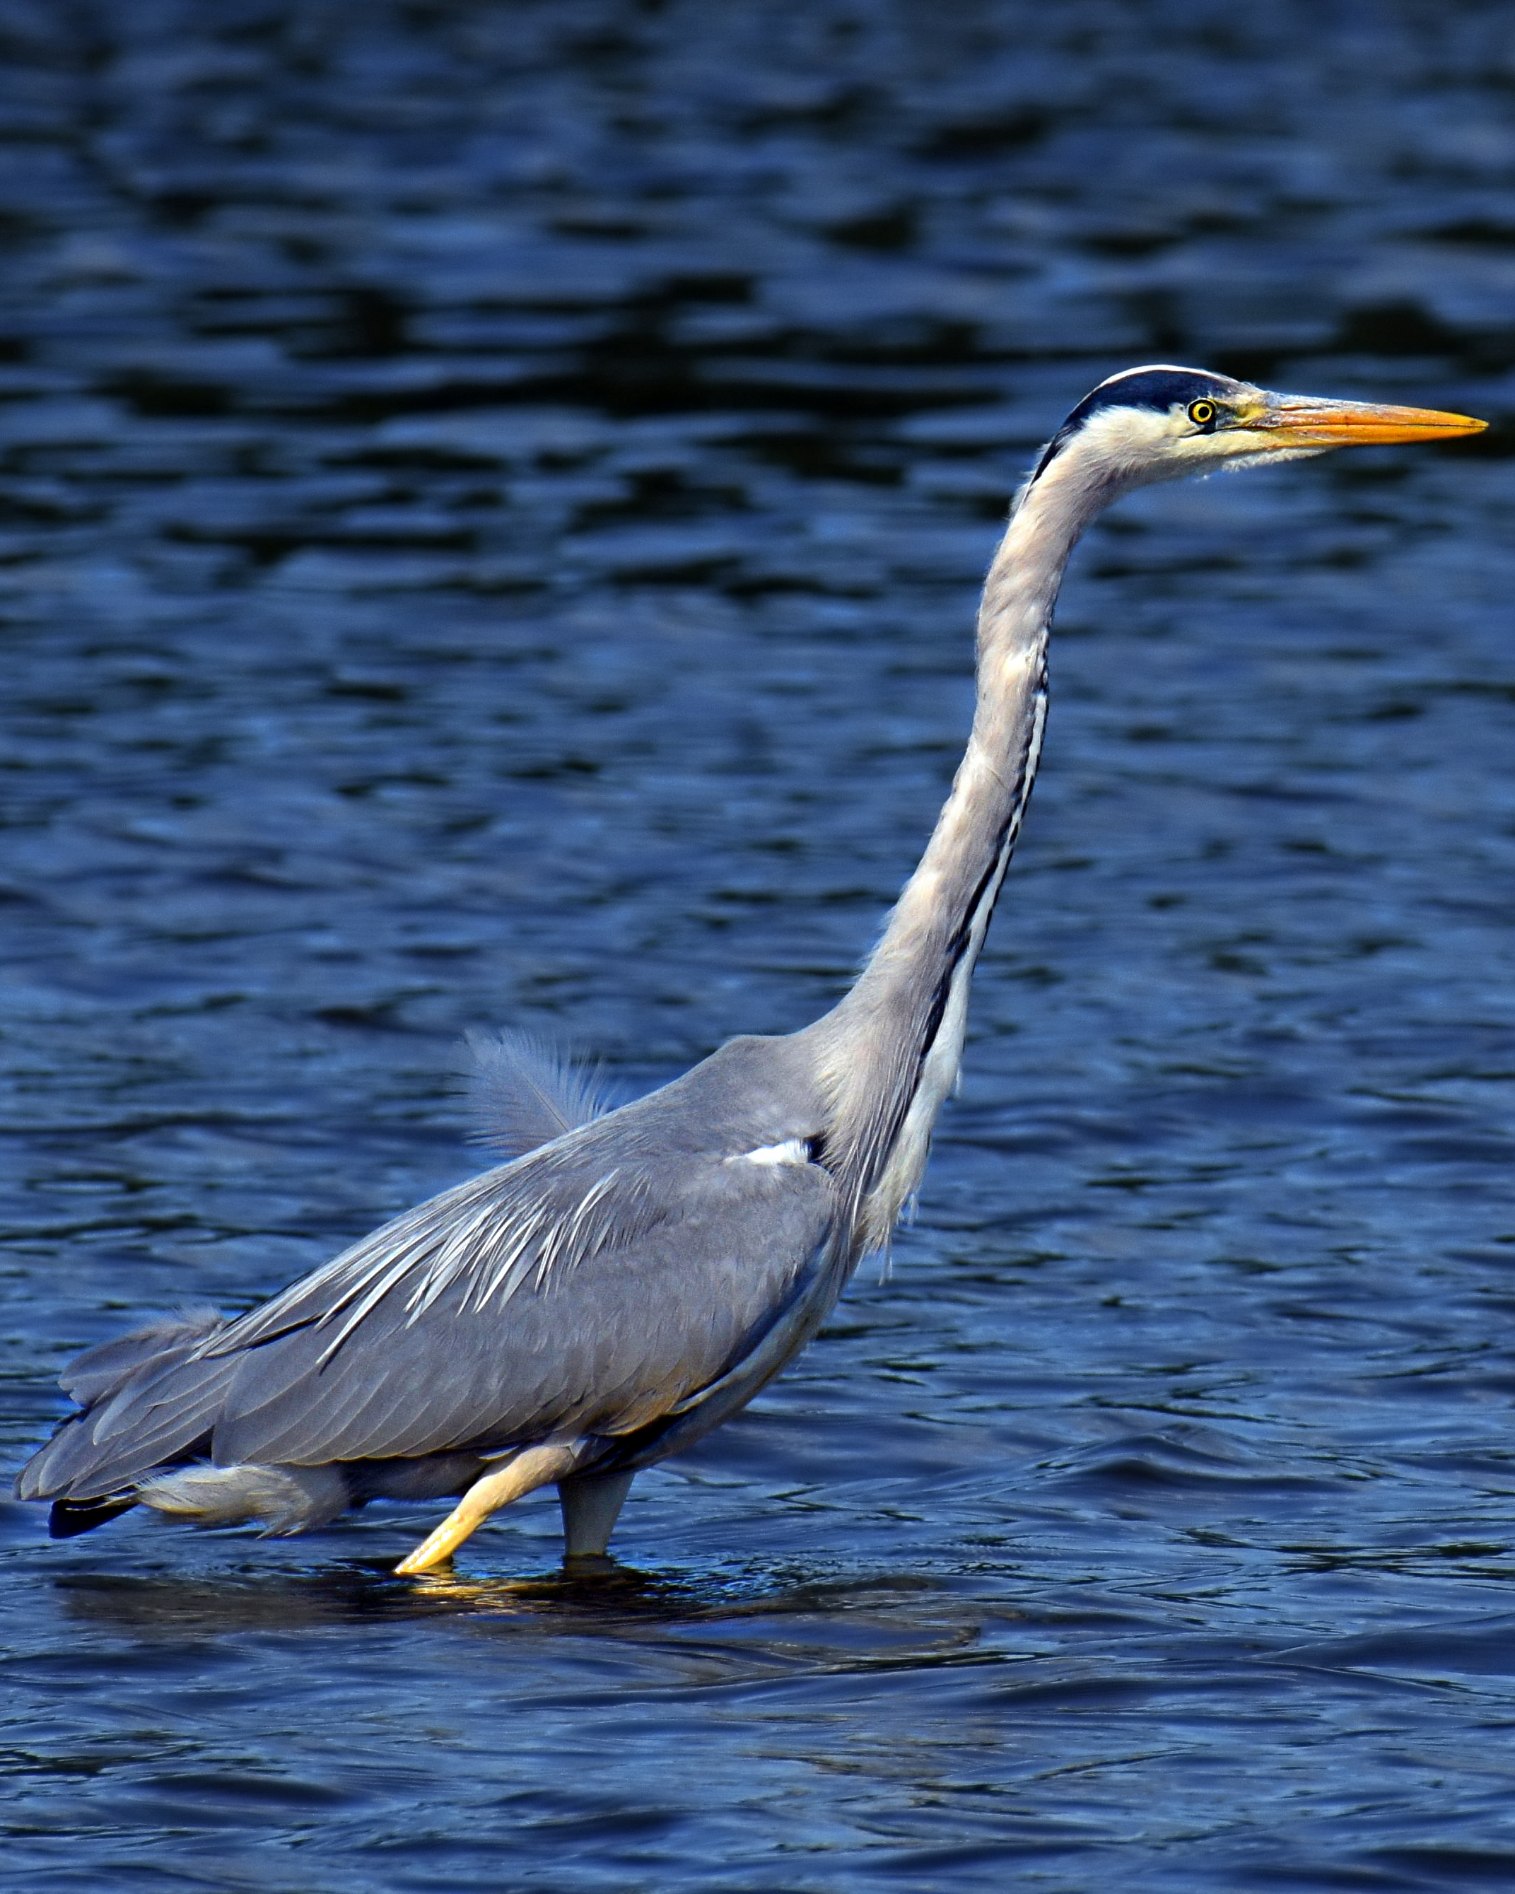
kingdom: Animalia
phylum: Chordata
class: Aves
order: Pelecaniformes
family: Ardeidae
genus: Ardea
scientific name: Ardea cinerea
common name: Fiskehejre
